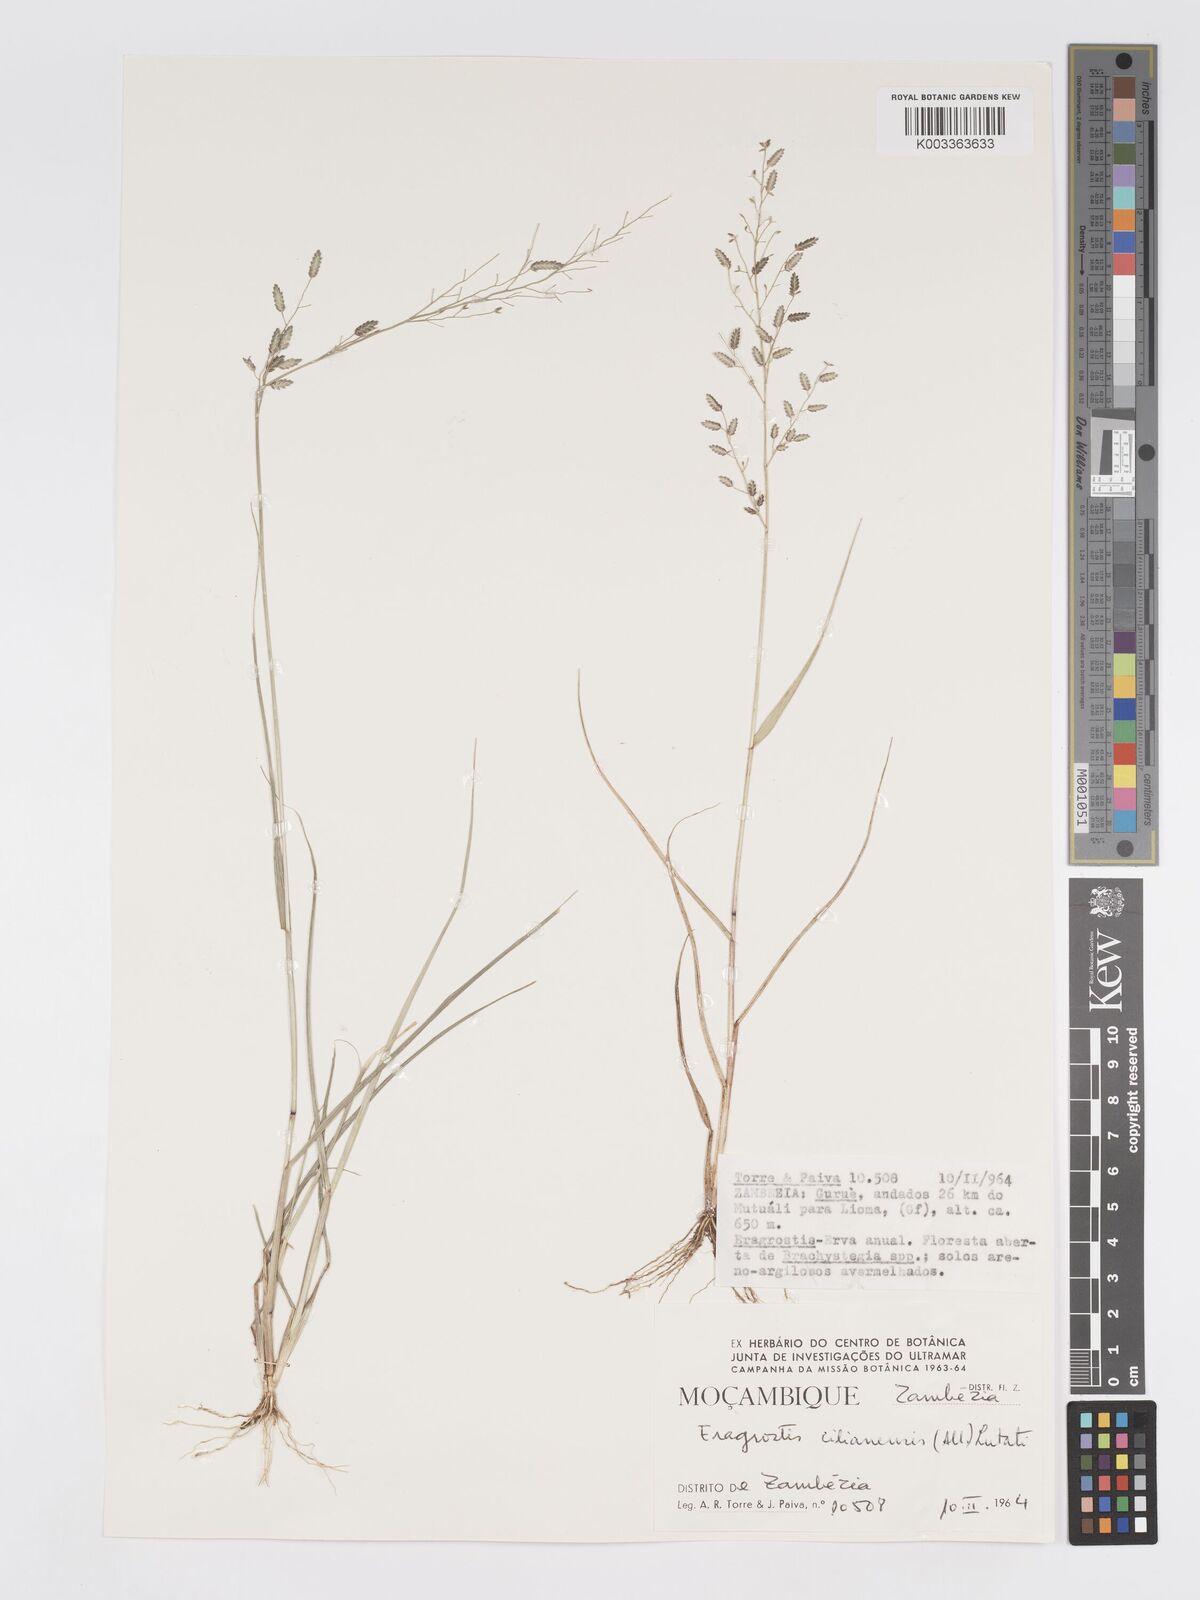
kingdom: Plantae
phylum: Tracheophyta
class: Liliopsida
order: Poales
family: Poaceae
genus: Eragrostis
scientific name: Eragrostis cilianensis
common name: Stinkgrass
